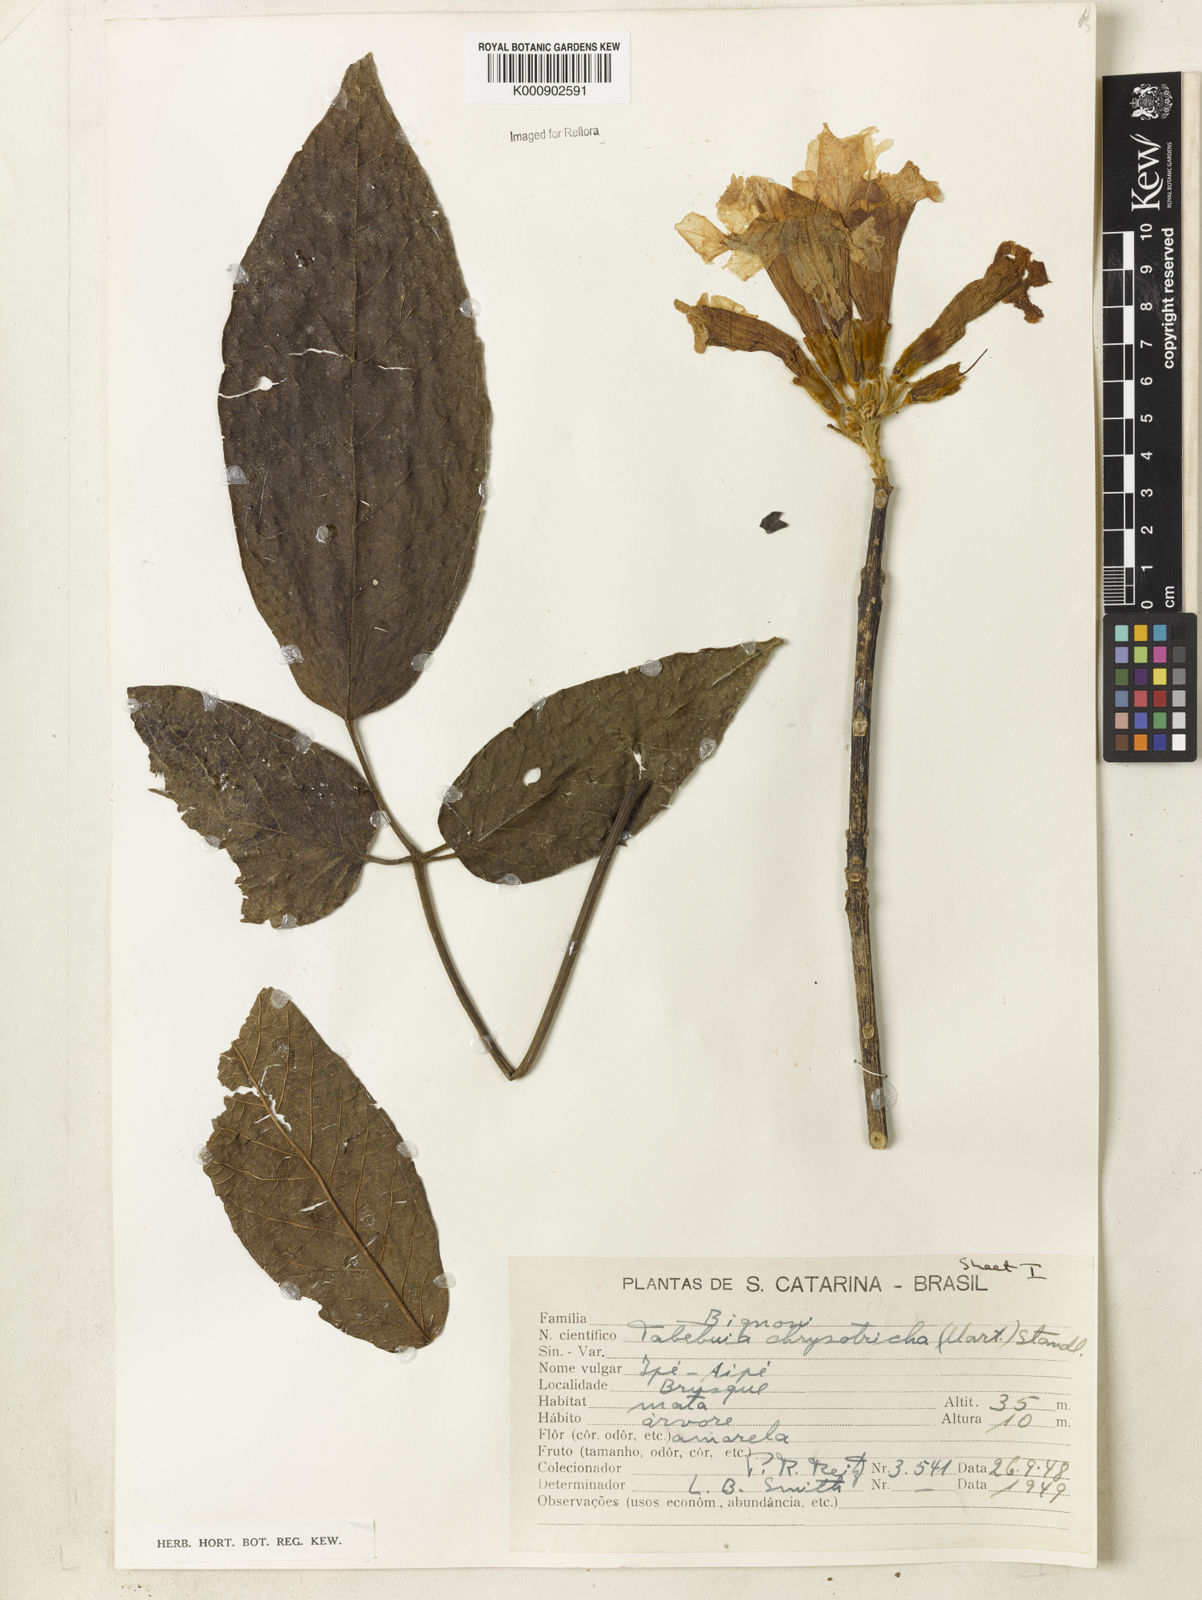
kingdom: Plantae
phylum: Tracheophyta
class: Magnoliopsida
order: Lamiales
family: Bignoniaceae
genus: Handroanthus
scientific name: Handroanthus chrysotrichus
